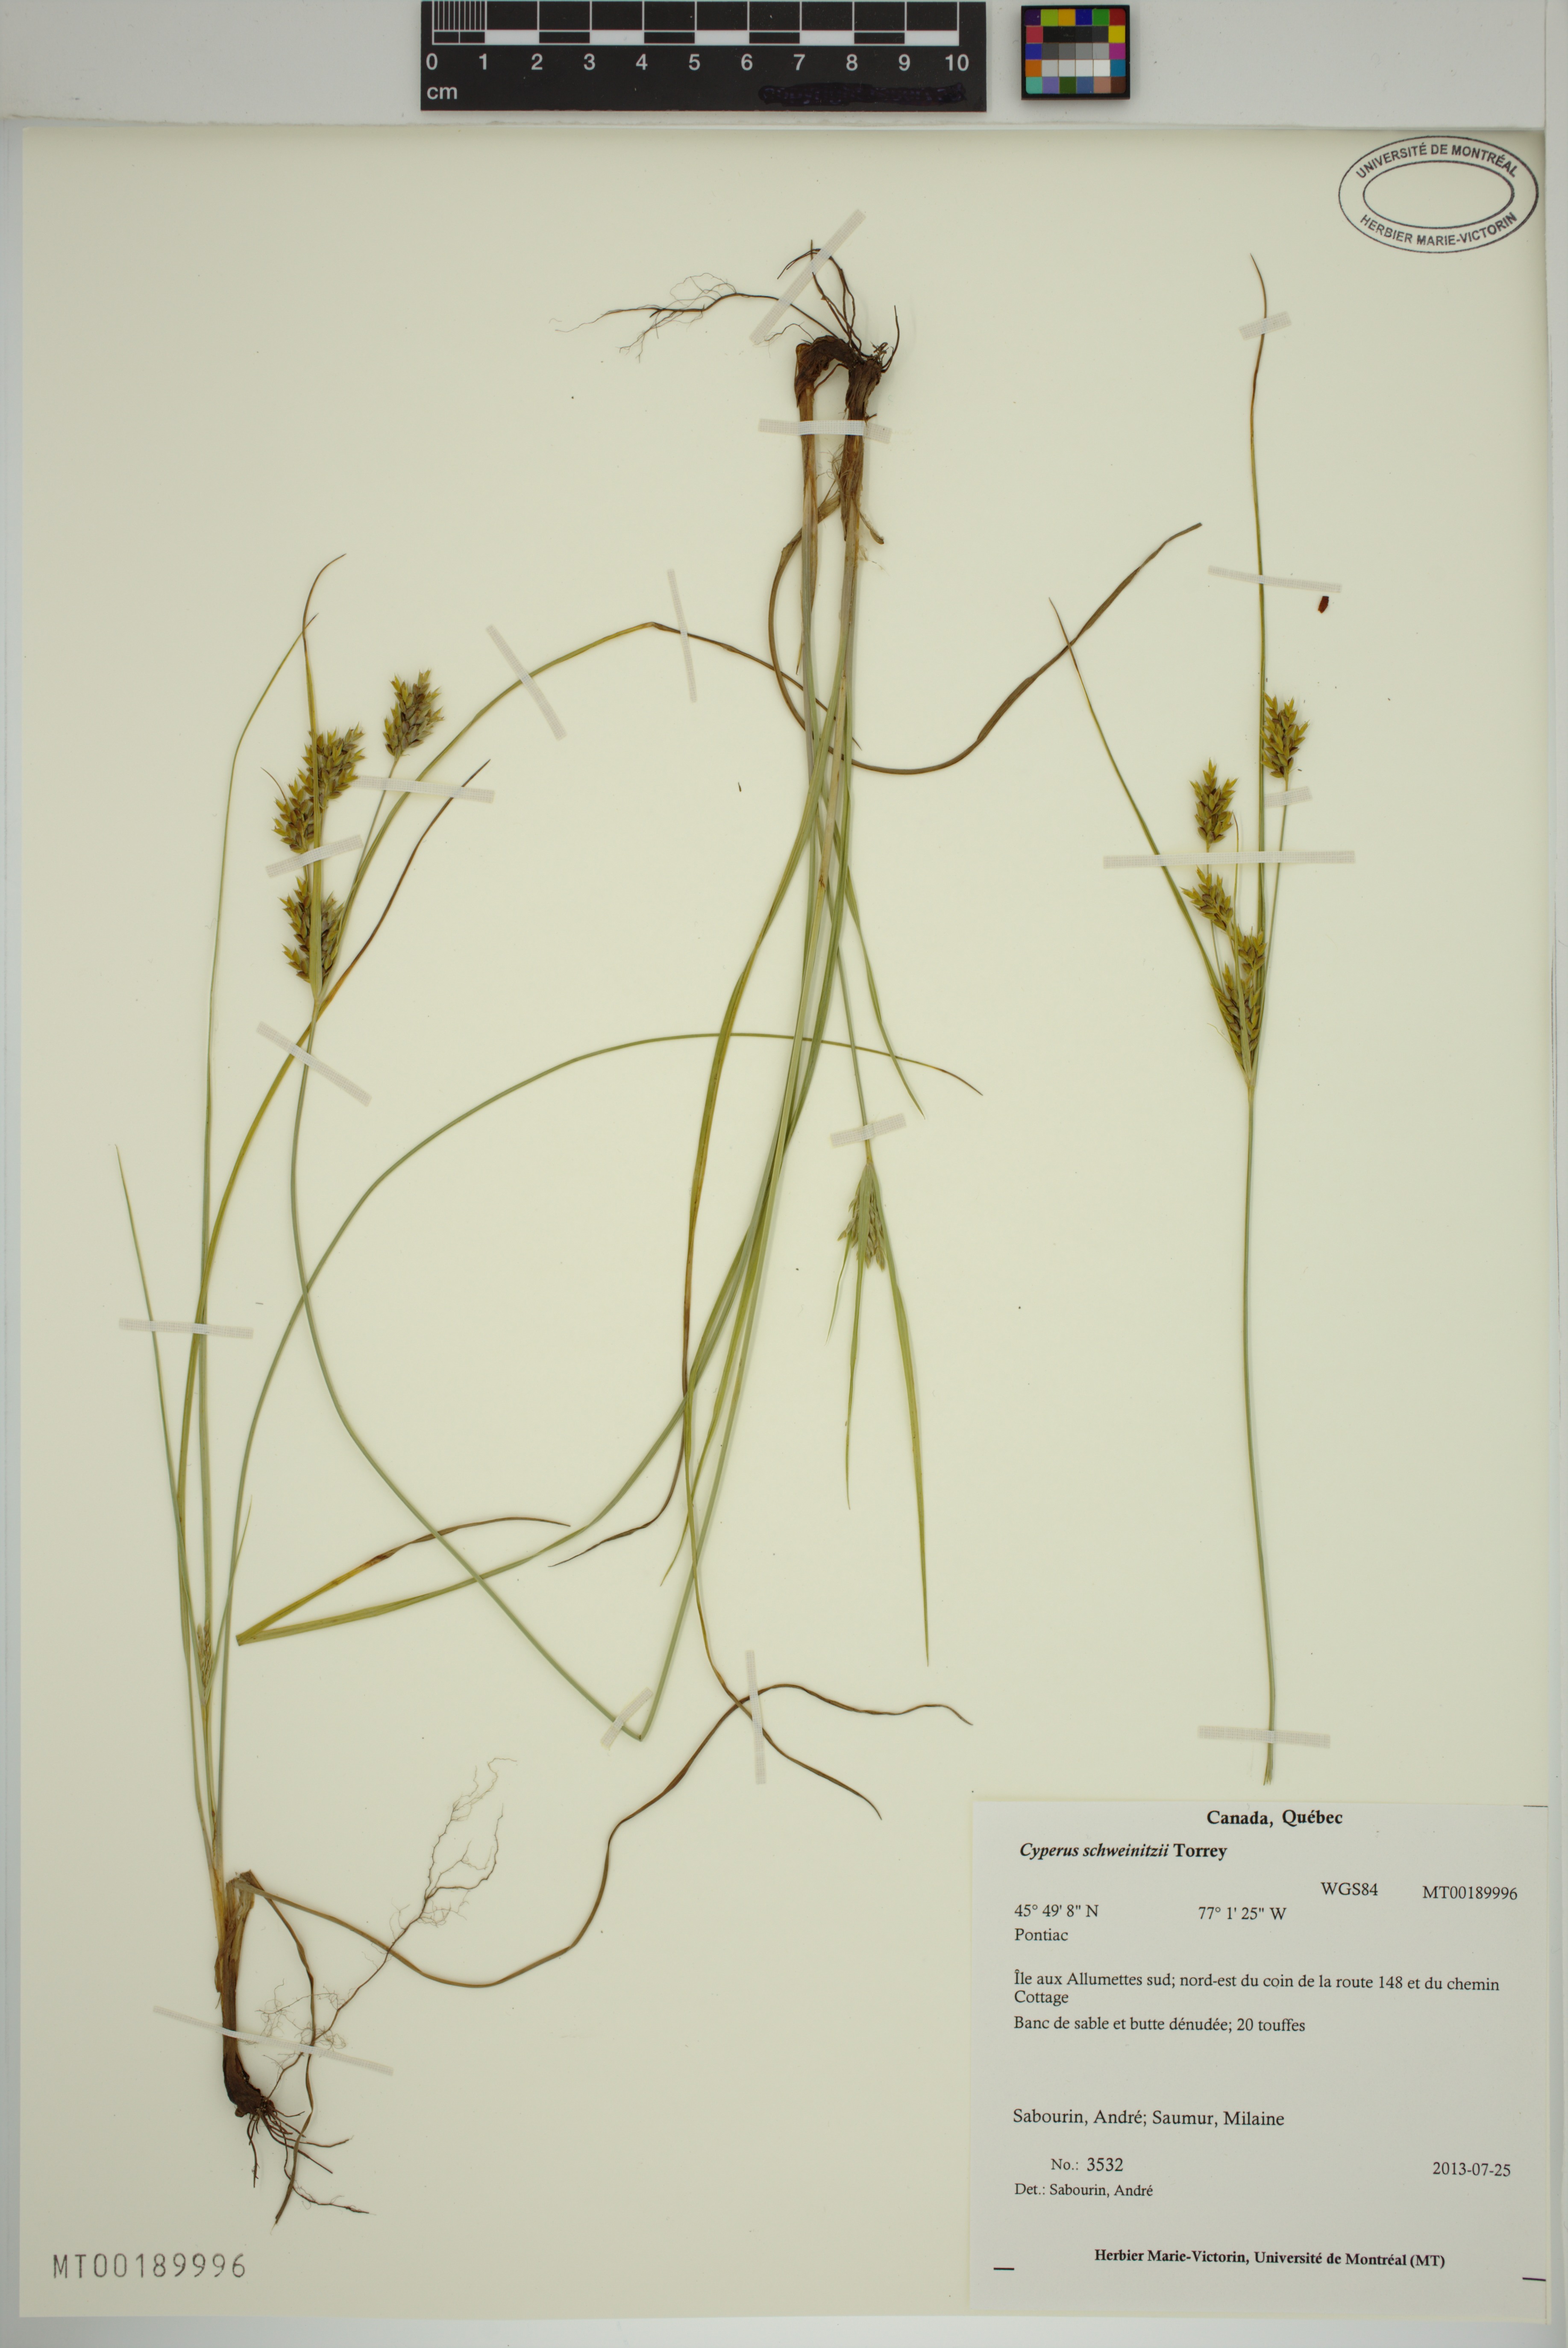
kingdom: Plantae
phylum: Tracheophyta
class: Liliopsida
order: Poales
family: Cyperaceae
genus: Cyperus
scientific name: Cyperus schweinitzii
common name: Schweinitz's cyperus
